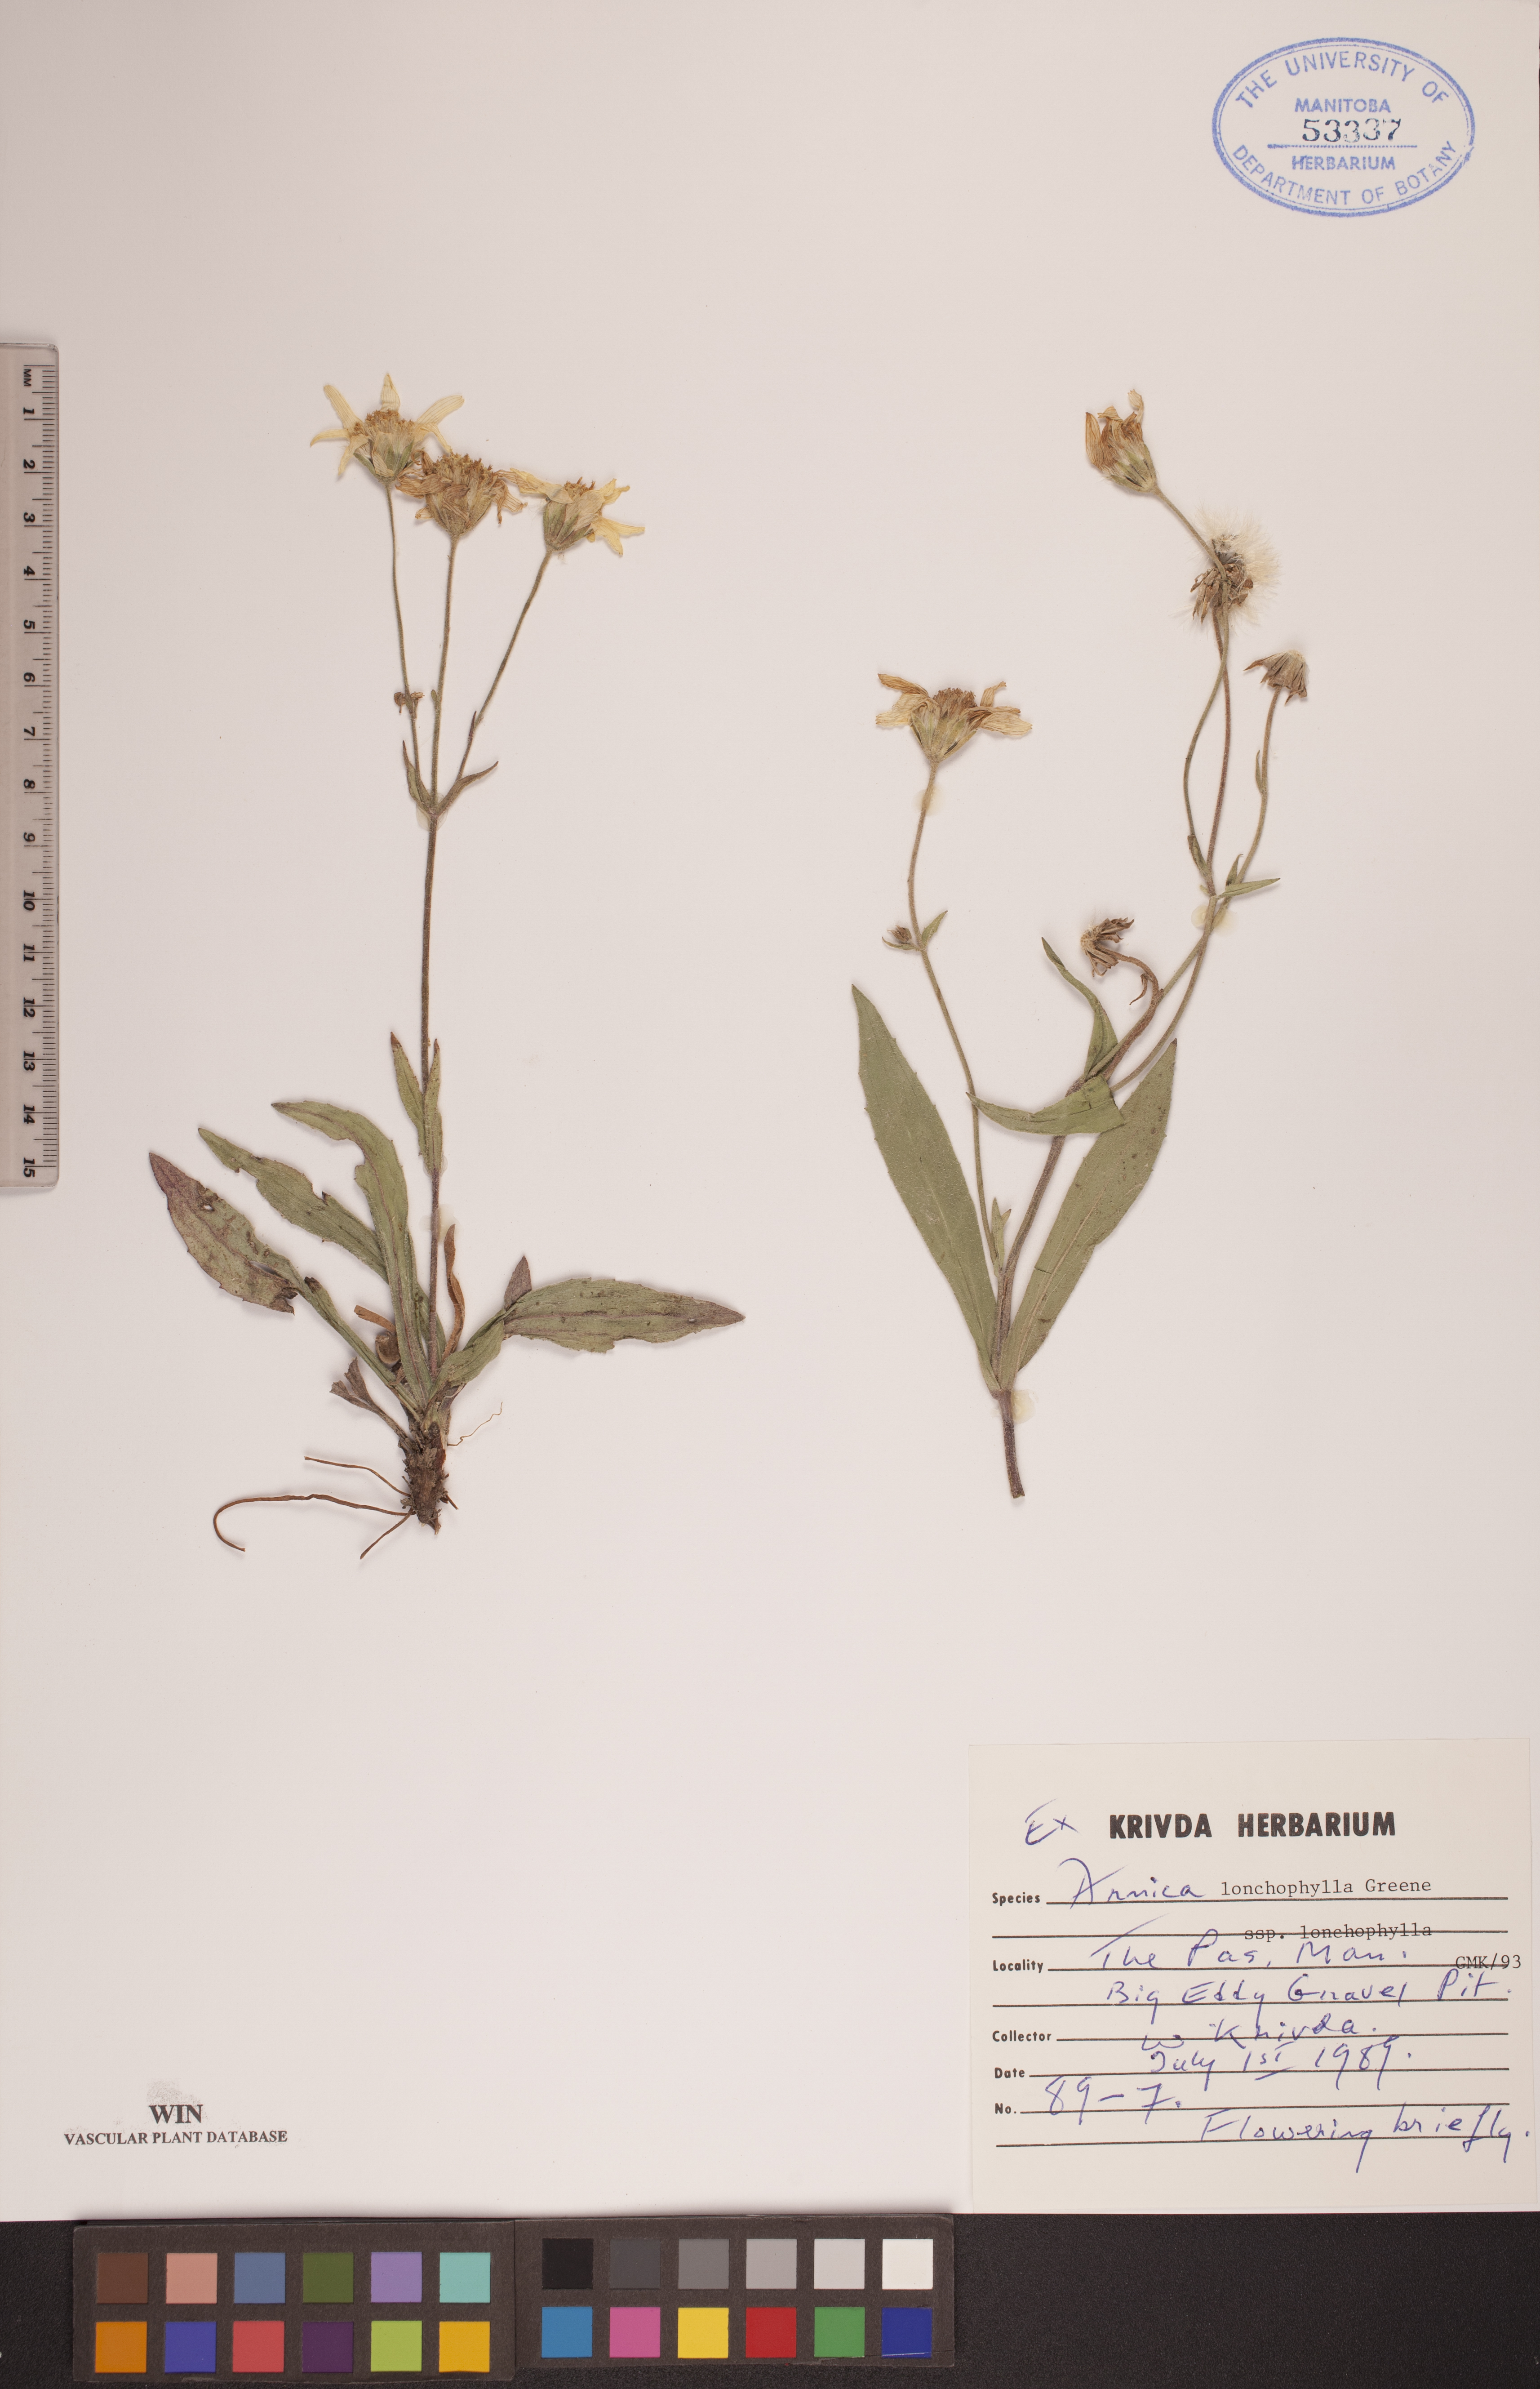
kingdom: Plantae
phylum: Tracheophyta
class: Magnoliopsida
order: Asterales
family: Asteraceae
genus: Arnica
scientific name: Arnica lonchophylla
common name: Northern arnica
